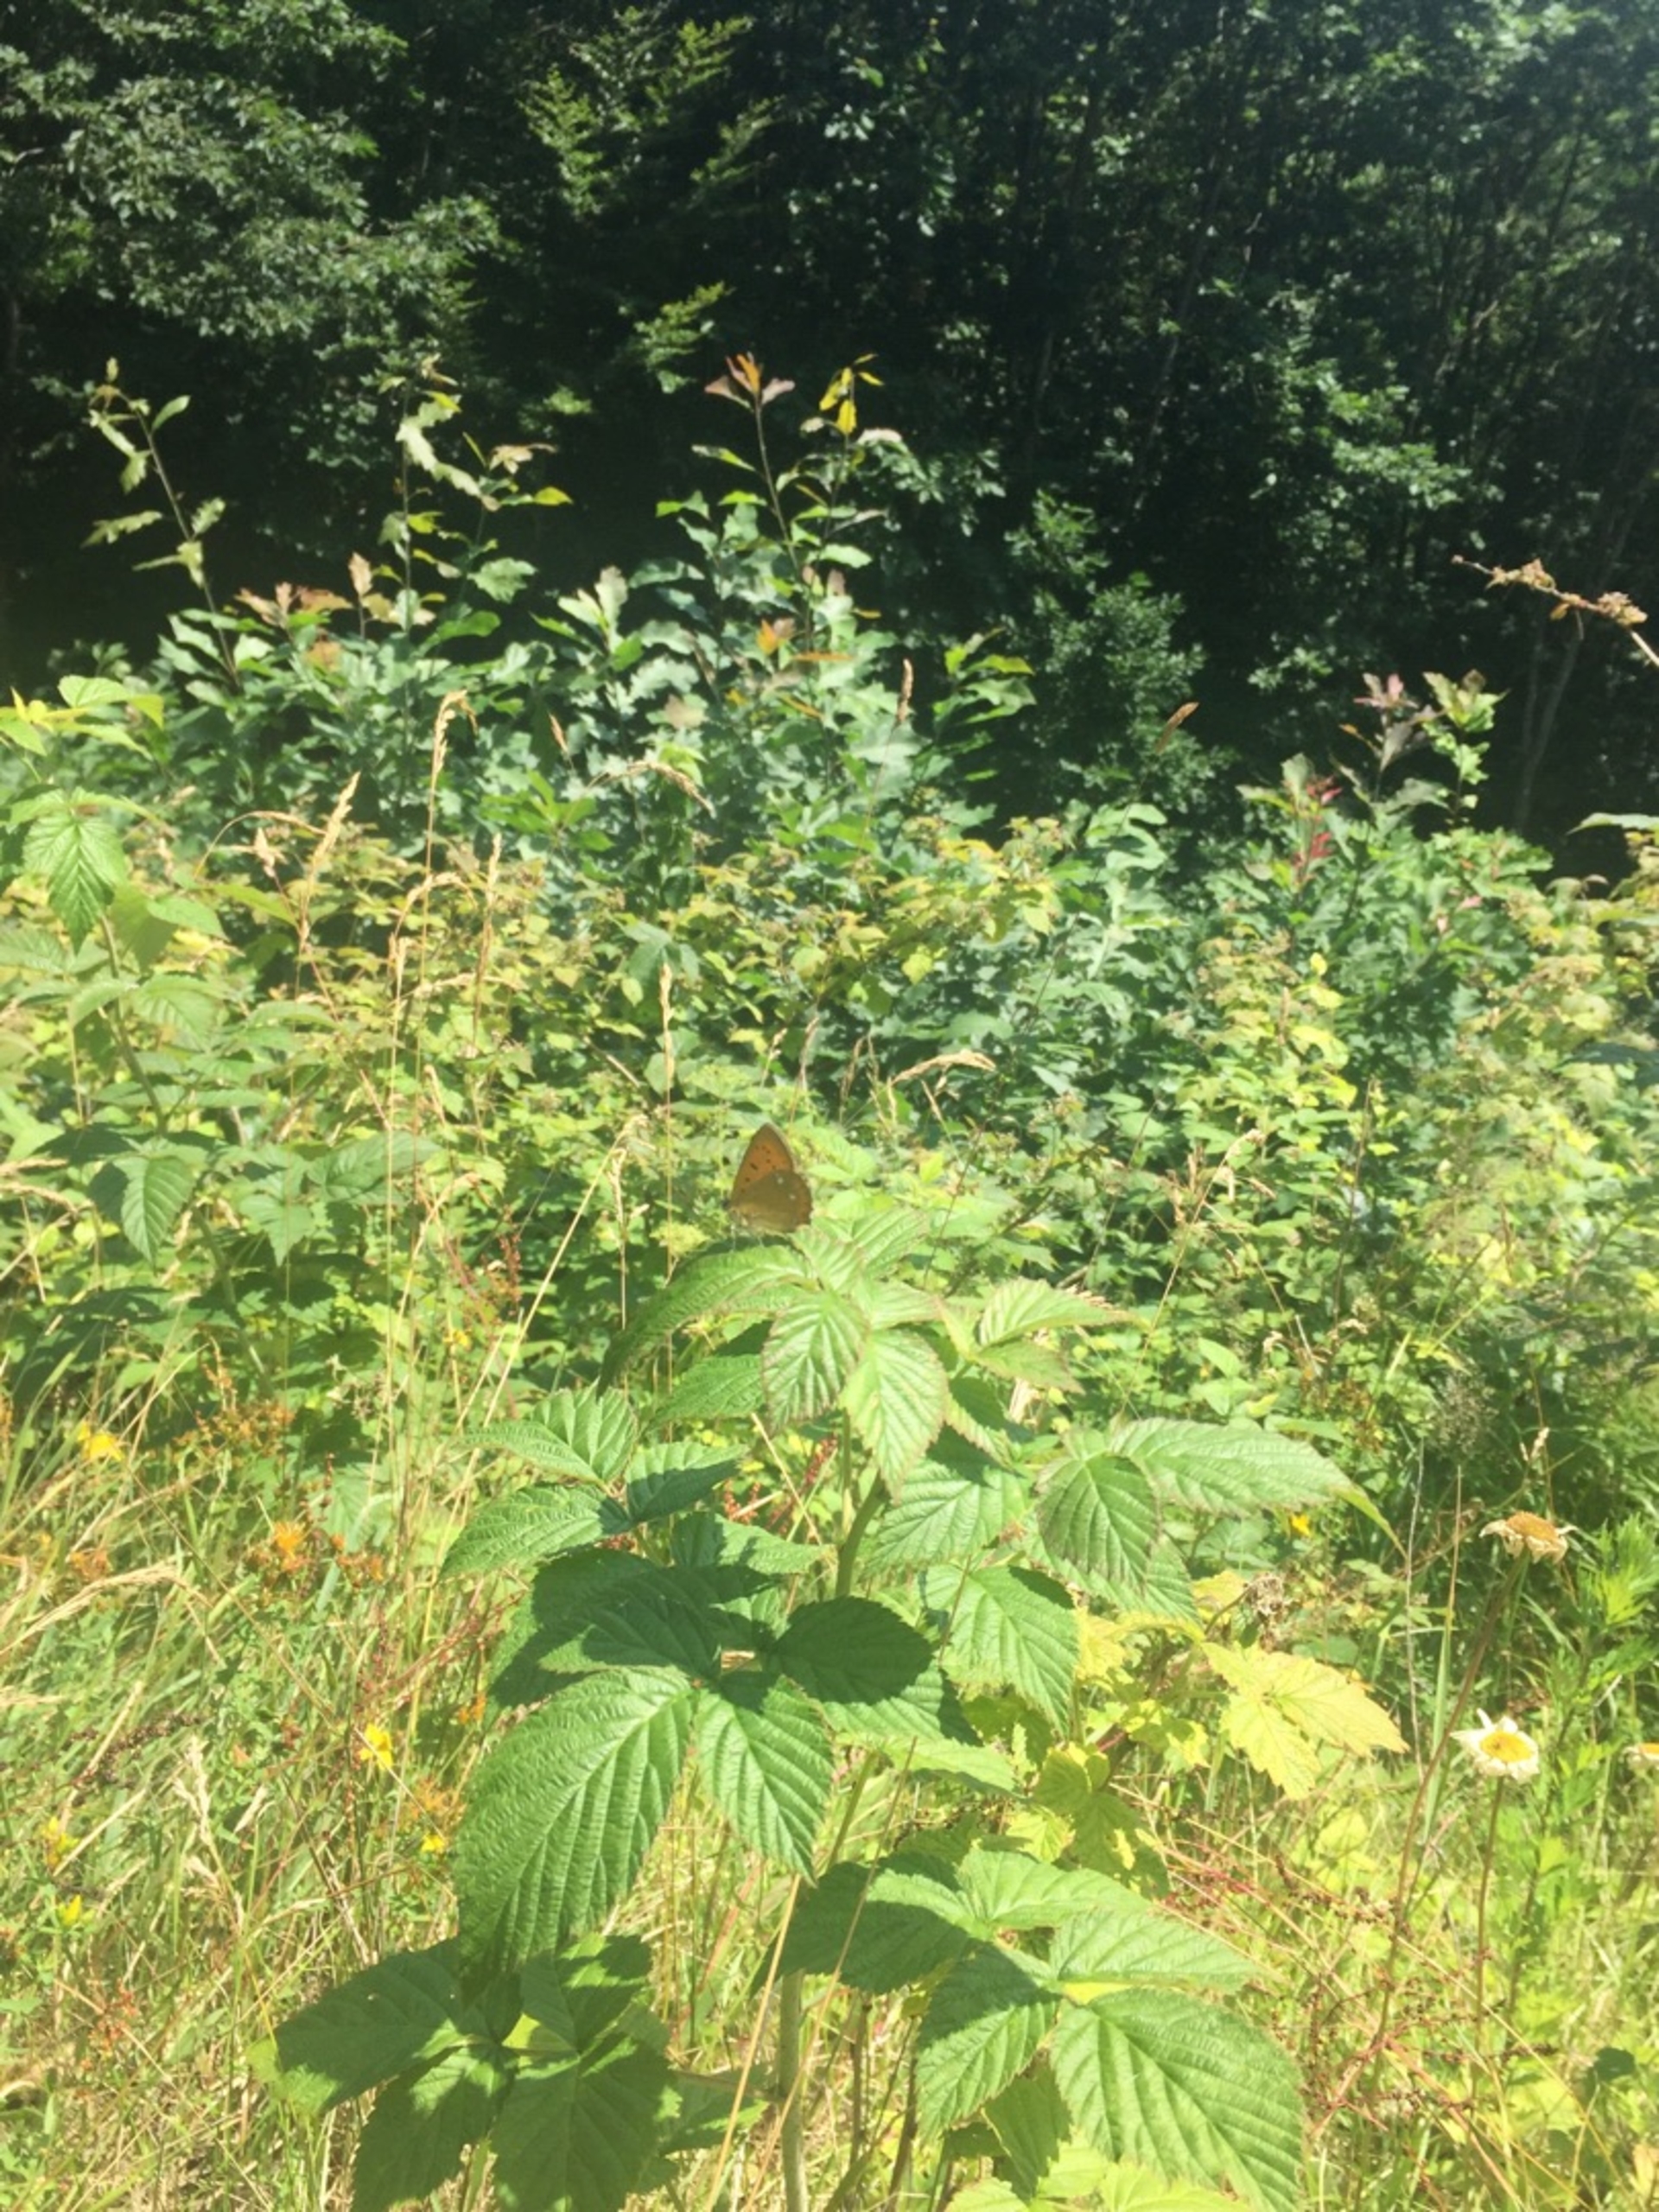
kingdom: Animalia
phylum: Arthropoda
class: Insecta
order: Lepidoptera
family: Lycaenidae
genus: Lycaena
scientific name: Lycaena virgaureae
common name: Dukatsommerfugl
